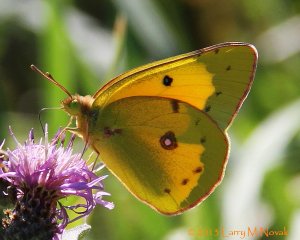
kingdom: Animalia
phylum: Arthropoda
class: Insecta
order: Lepidoptera
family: Pieridae
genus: Colias
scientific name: Colias eurytheme
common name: Orange Sulphur
